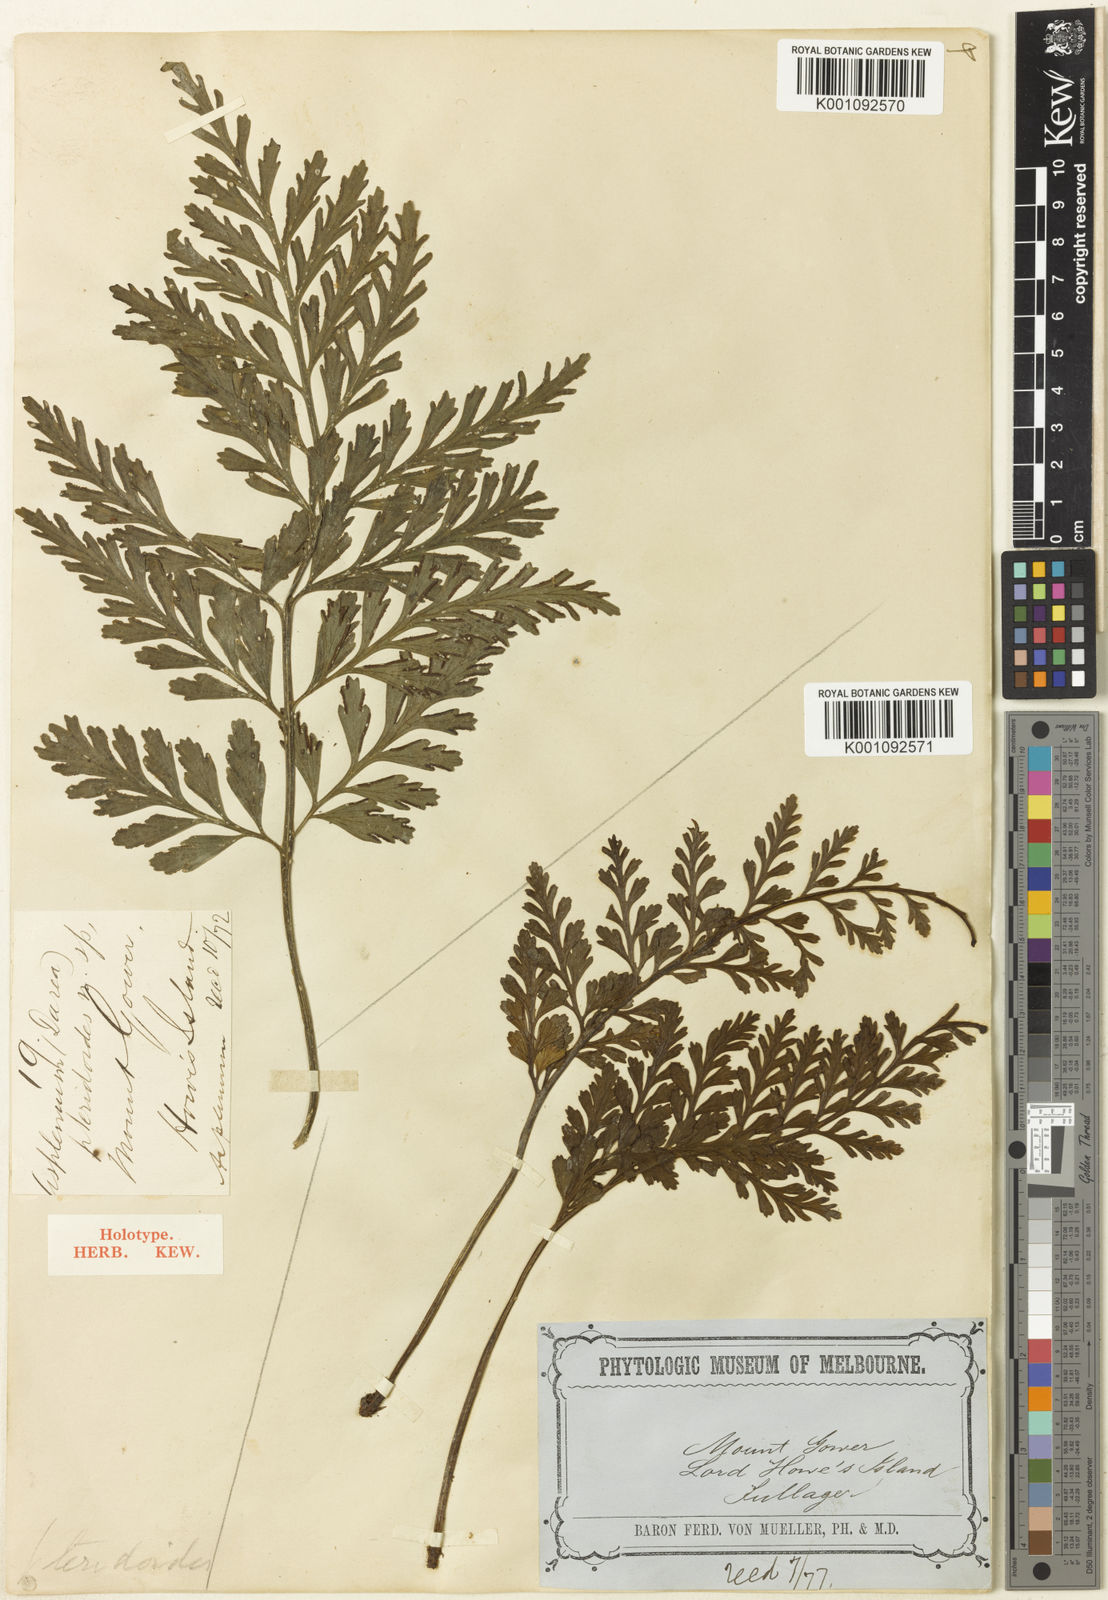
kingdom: Plantae
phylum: Tracheophyta
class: Polypodiopsida
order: Polypodiales
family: Aspleniaceae
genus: Asplenium
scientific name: Asplenium athertonense
